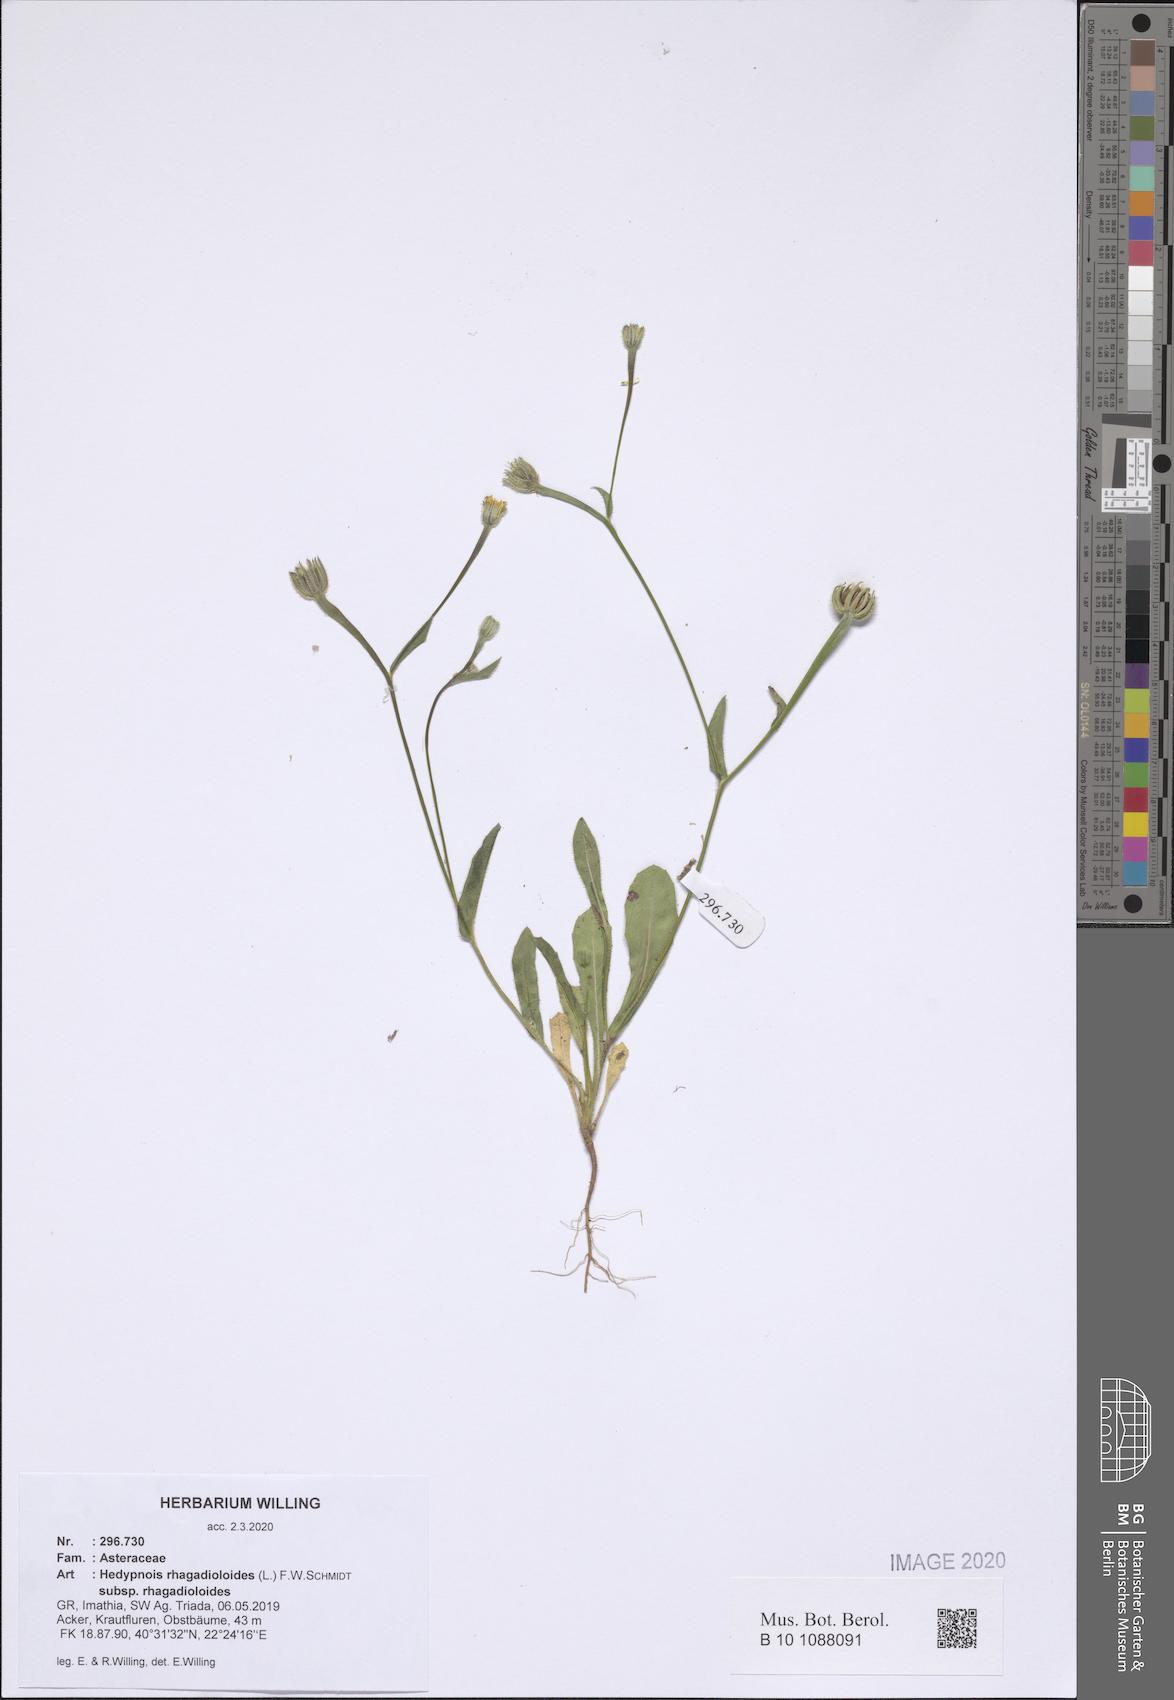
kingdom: Plantae
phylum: Tracheophyta
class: Magnoliopsida
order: Asterales
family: Asteraceae
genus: Hedypnois
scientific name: Hedypnois rhagadioloides
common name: Cretan weed
